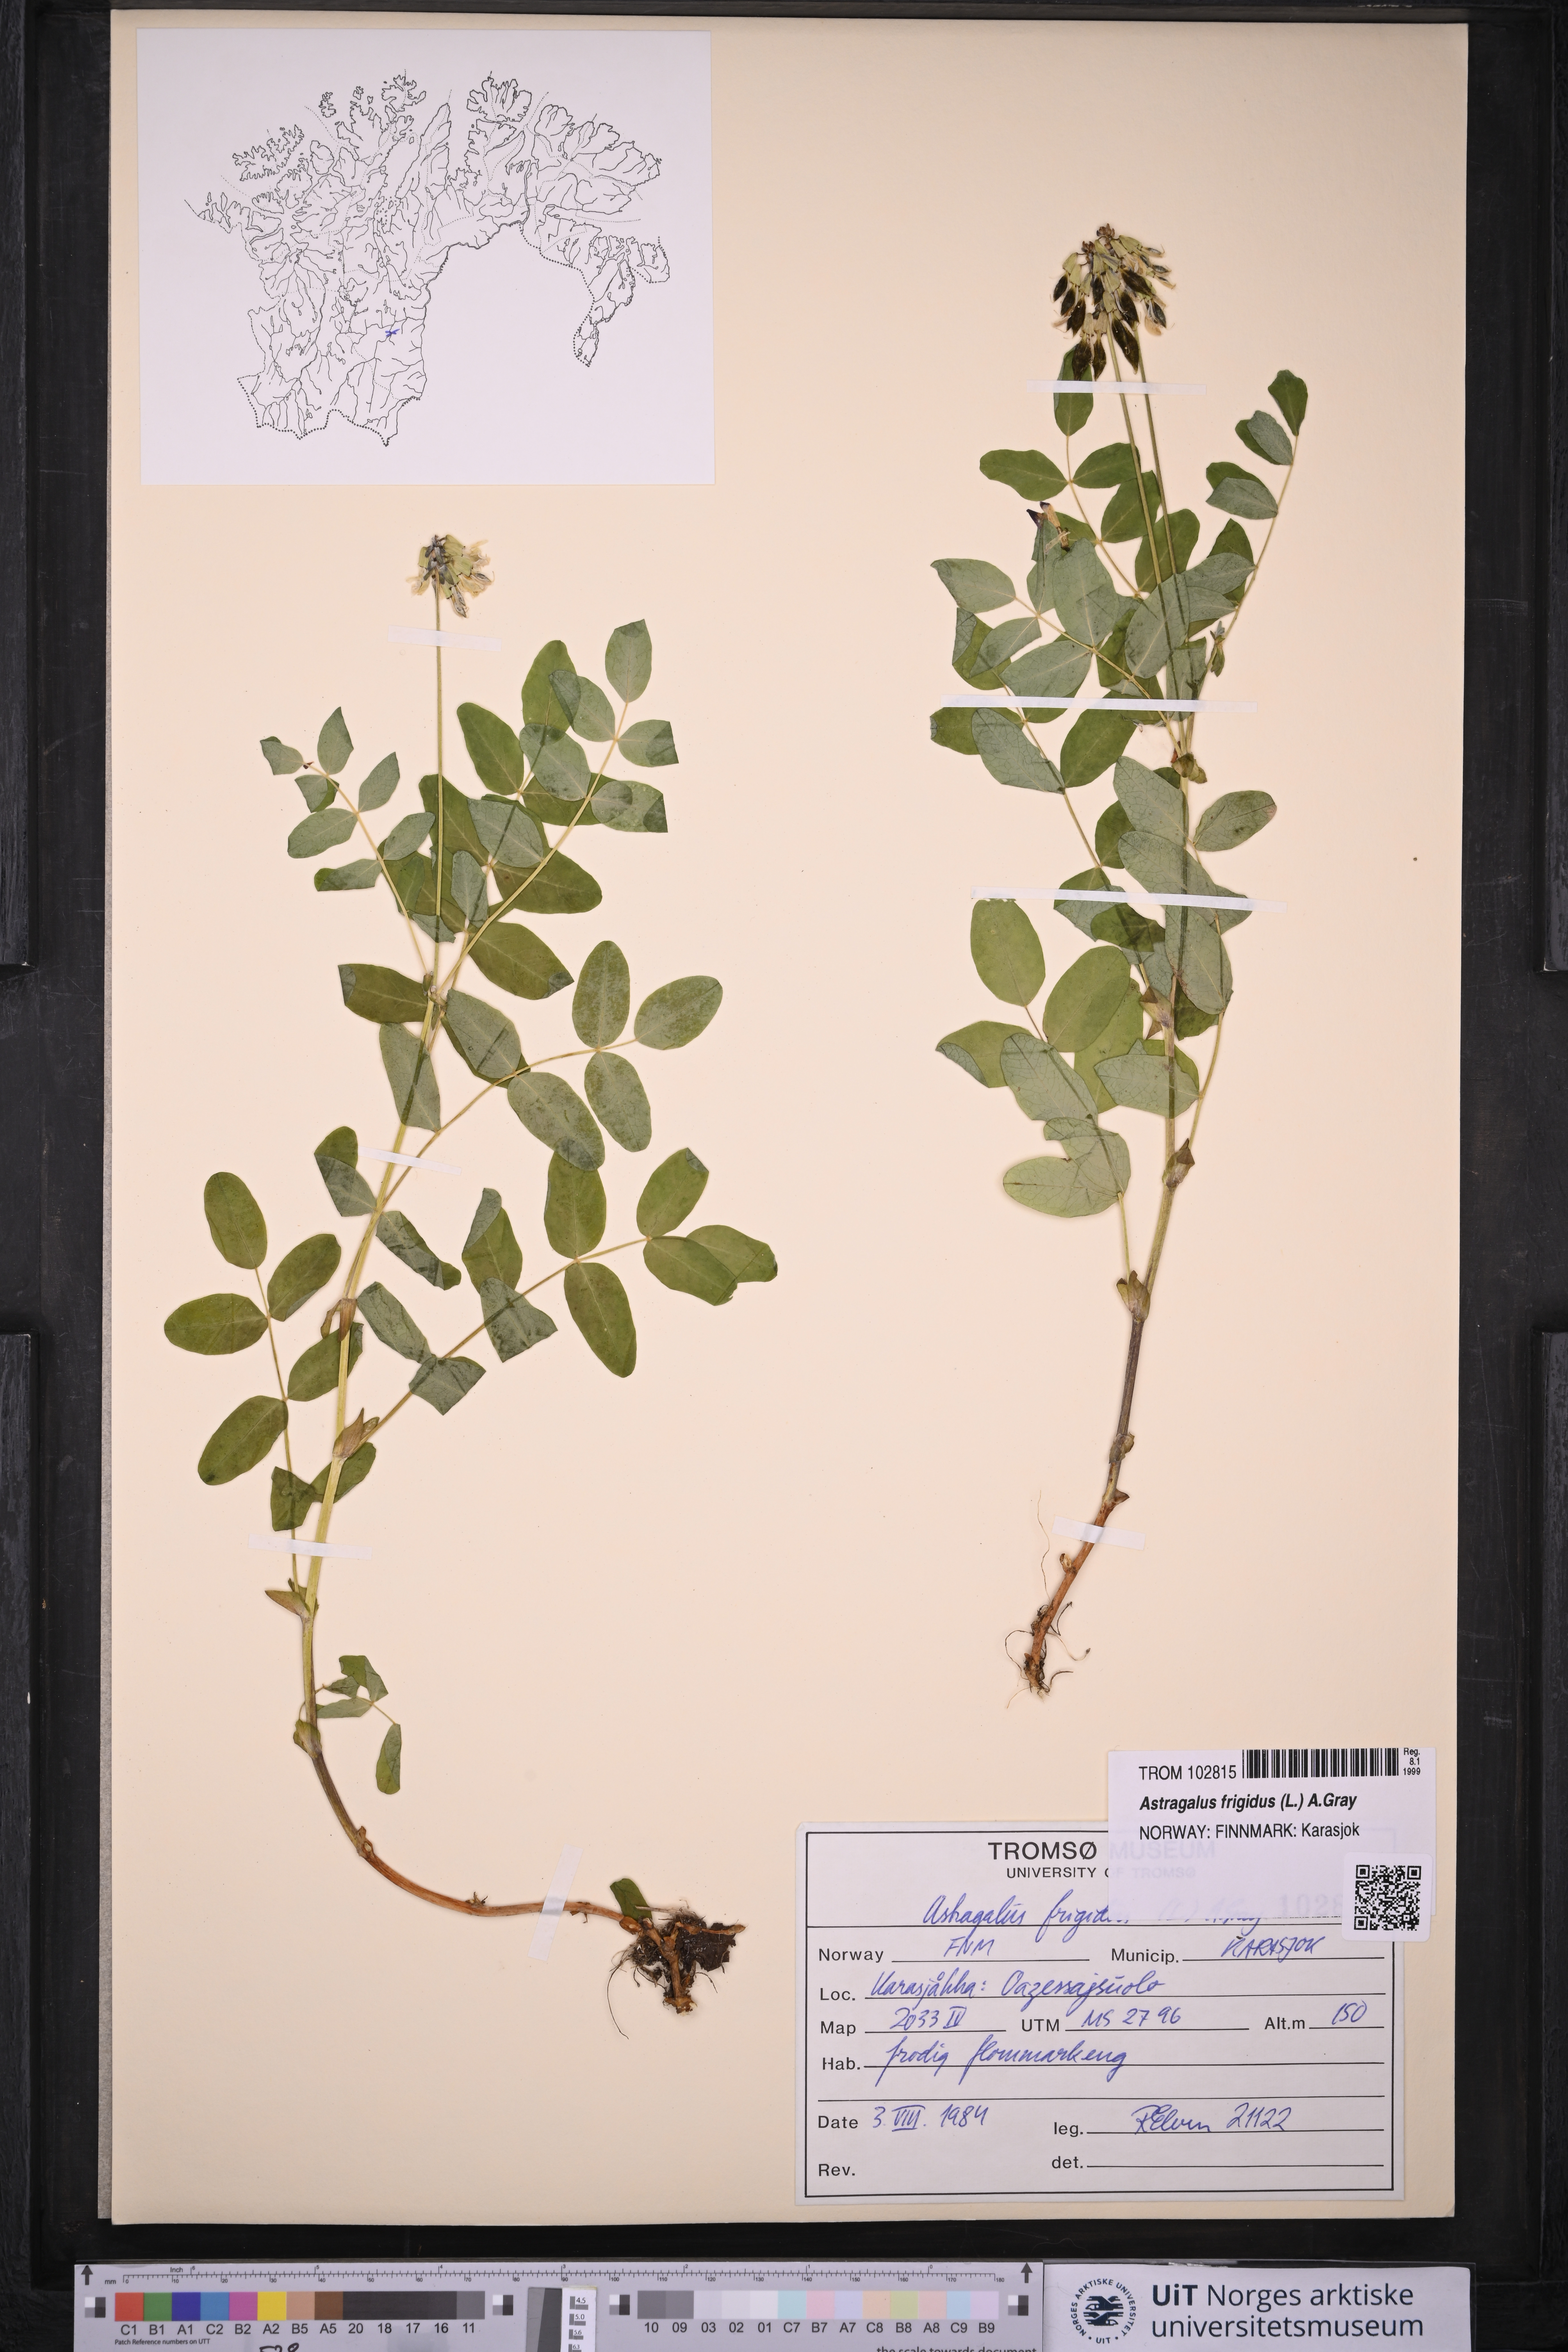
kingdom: Plantae
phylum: Tracheophyta
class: Magnoliopsida
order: Fabales
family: Fabaceae
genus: Astragalus
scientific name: Astragalus frigidus
